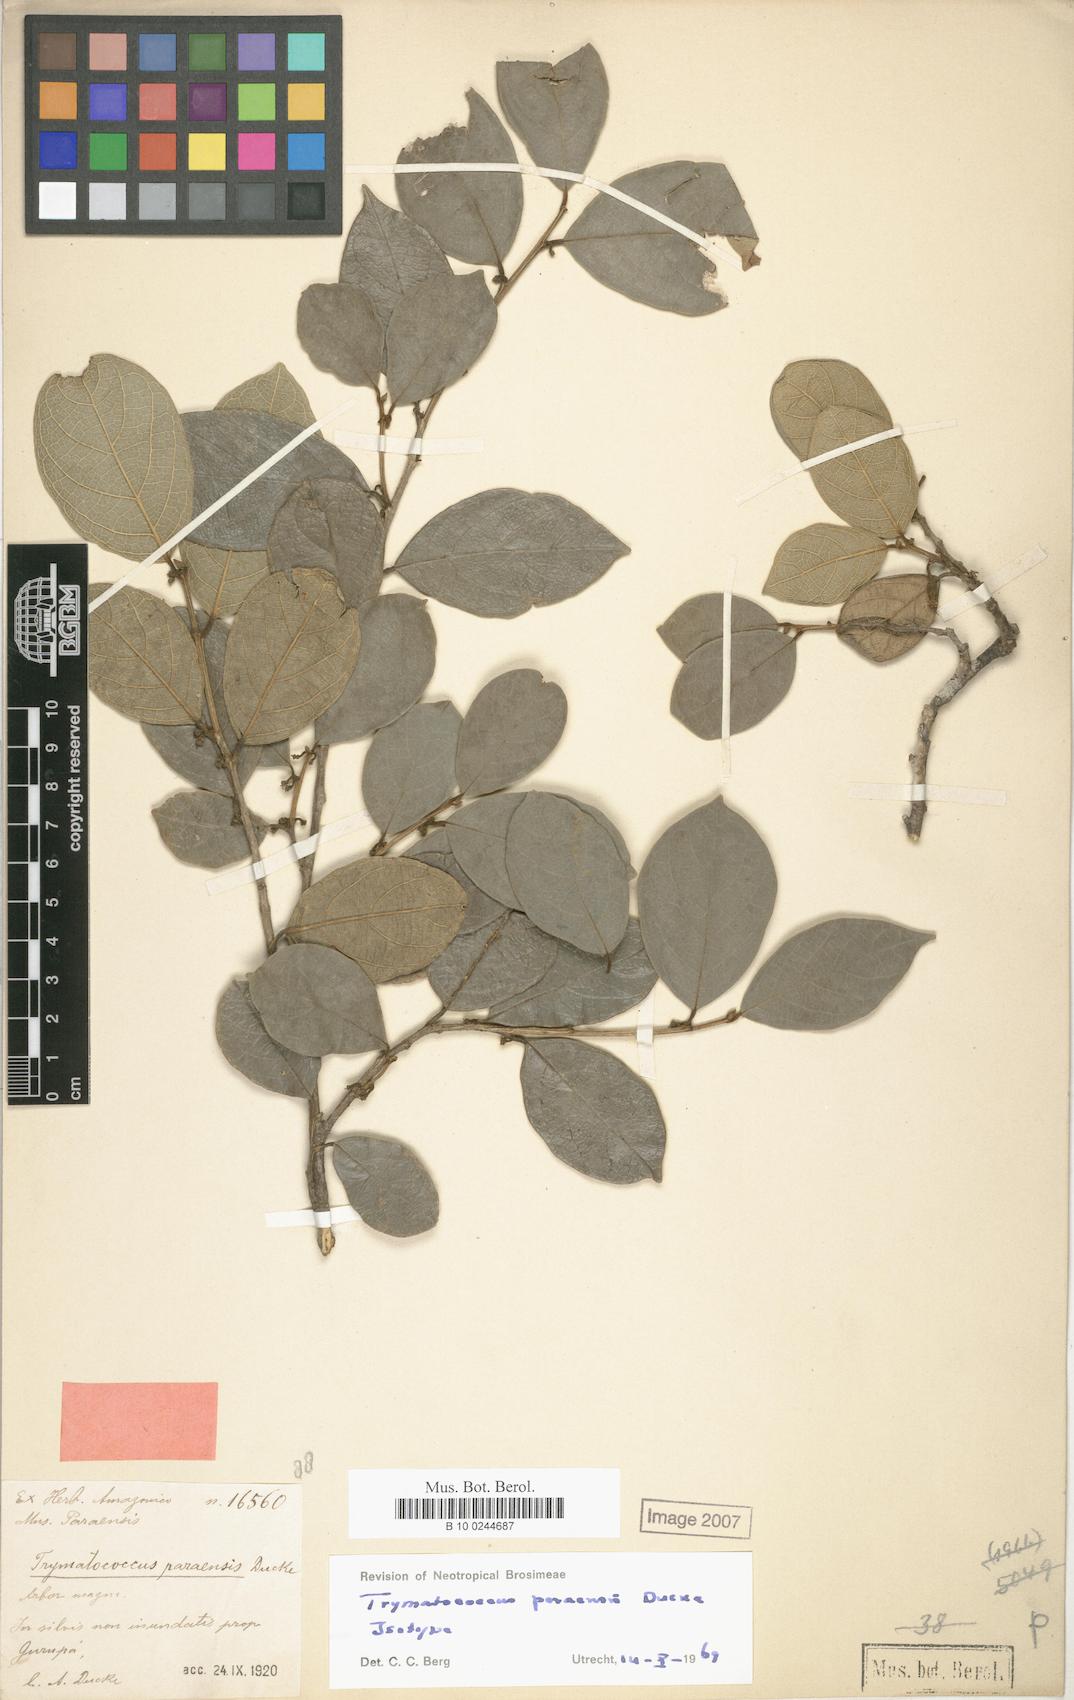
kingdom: Plantae
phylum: Tracheophyta
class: Magnoliopsida
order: Rosales
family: Moraceae
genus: Brosimum
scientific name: Brosimum amazonicum
